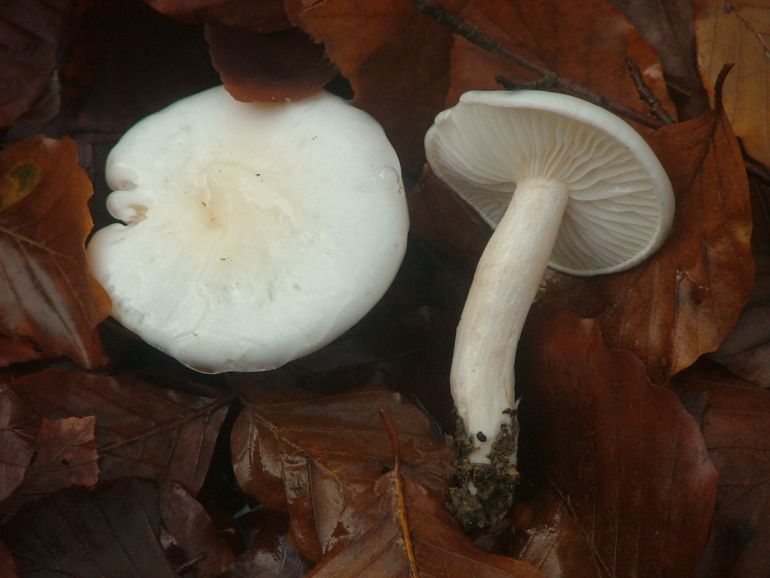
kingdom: Fungi
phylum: Basidiomycota
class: Agaricomycetes
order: Agaricales
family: Hygrophoraceae
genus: Hygrophorus
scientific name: Hygrophorus eburneus
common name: elfenbens-sneglehat
